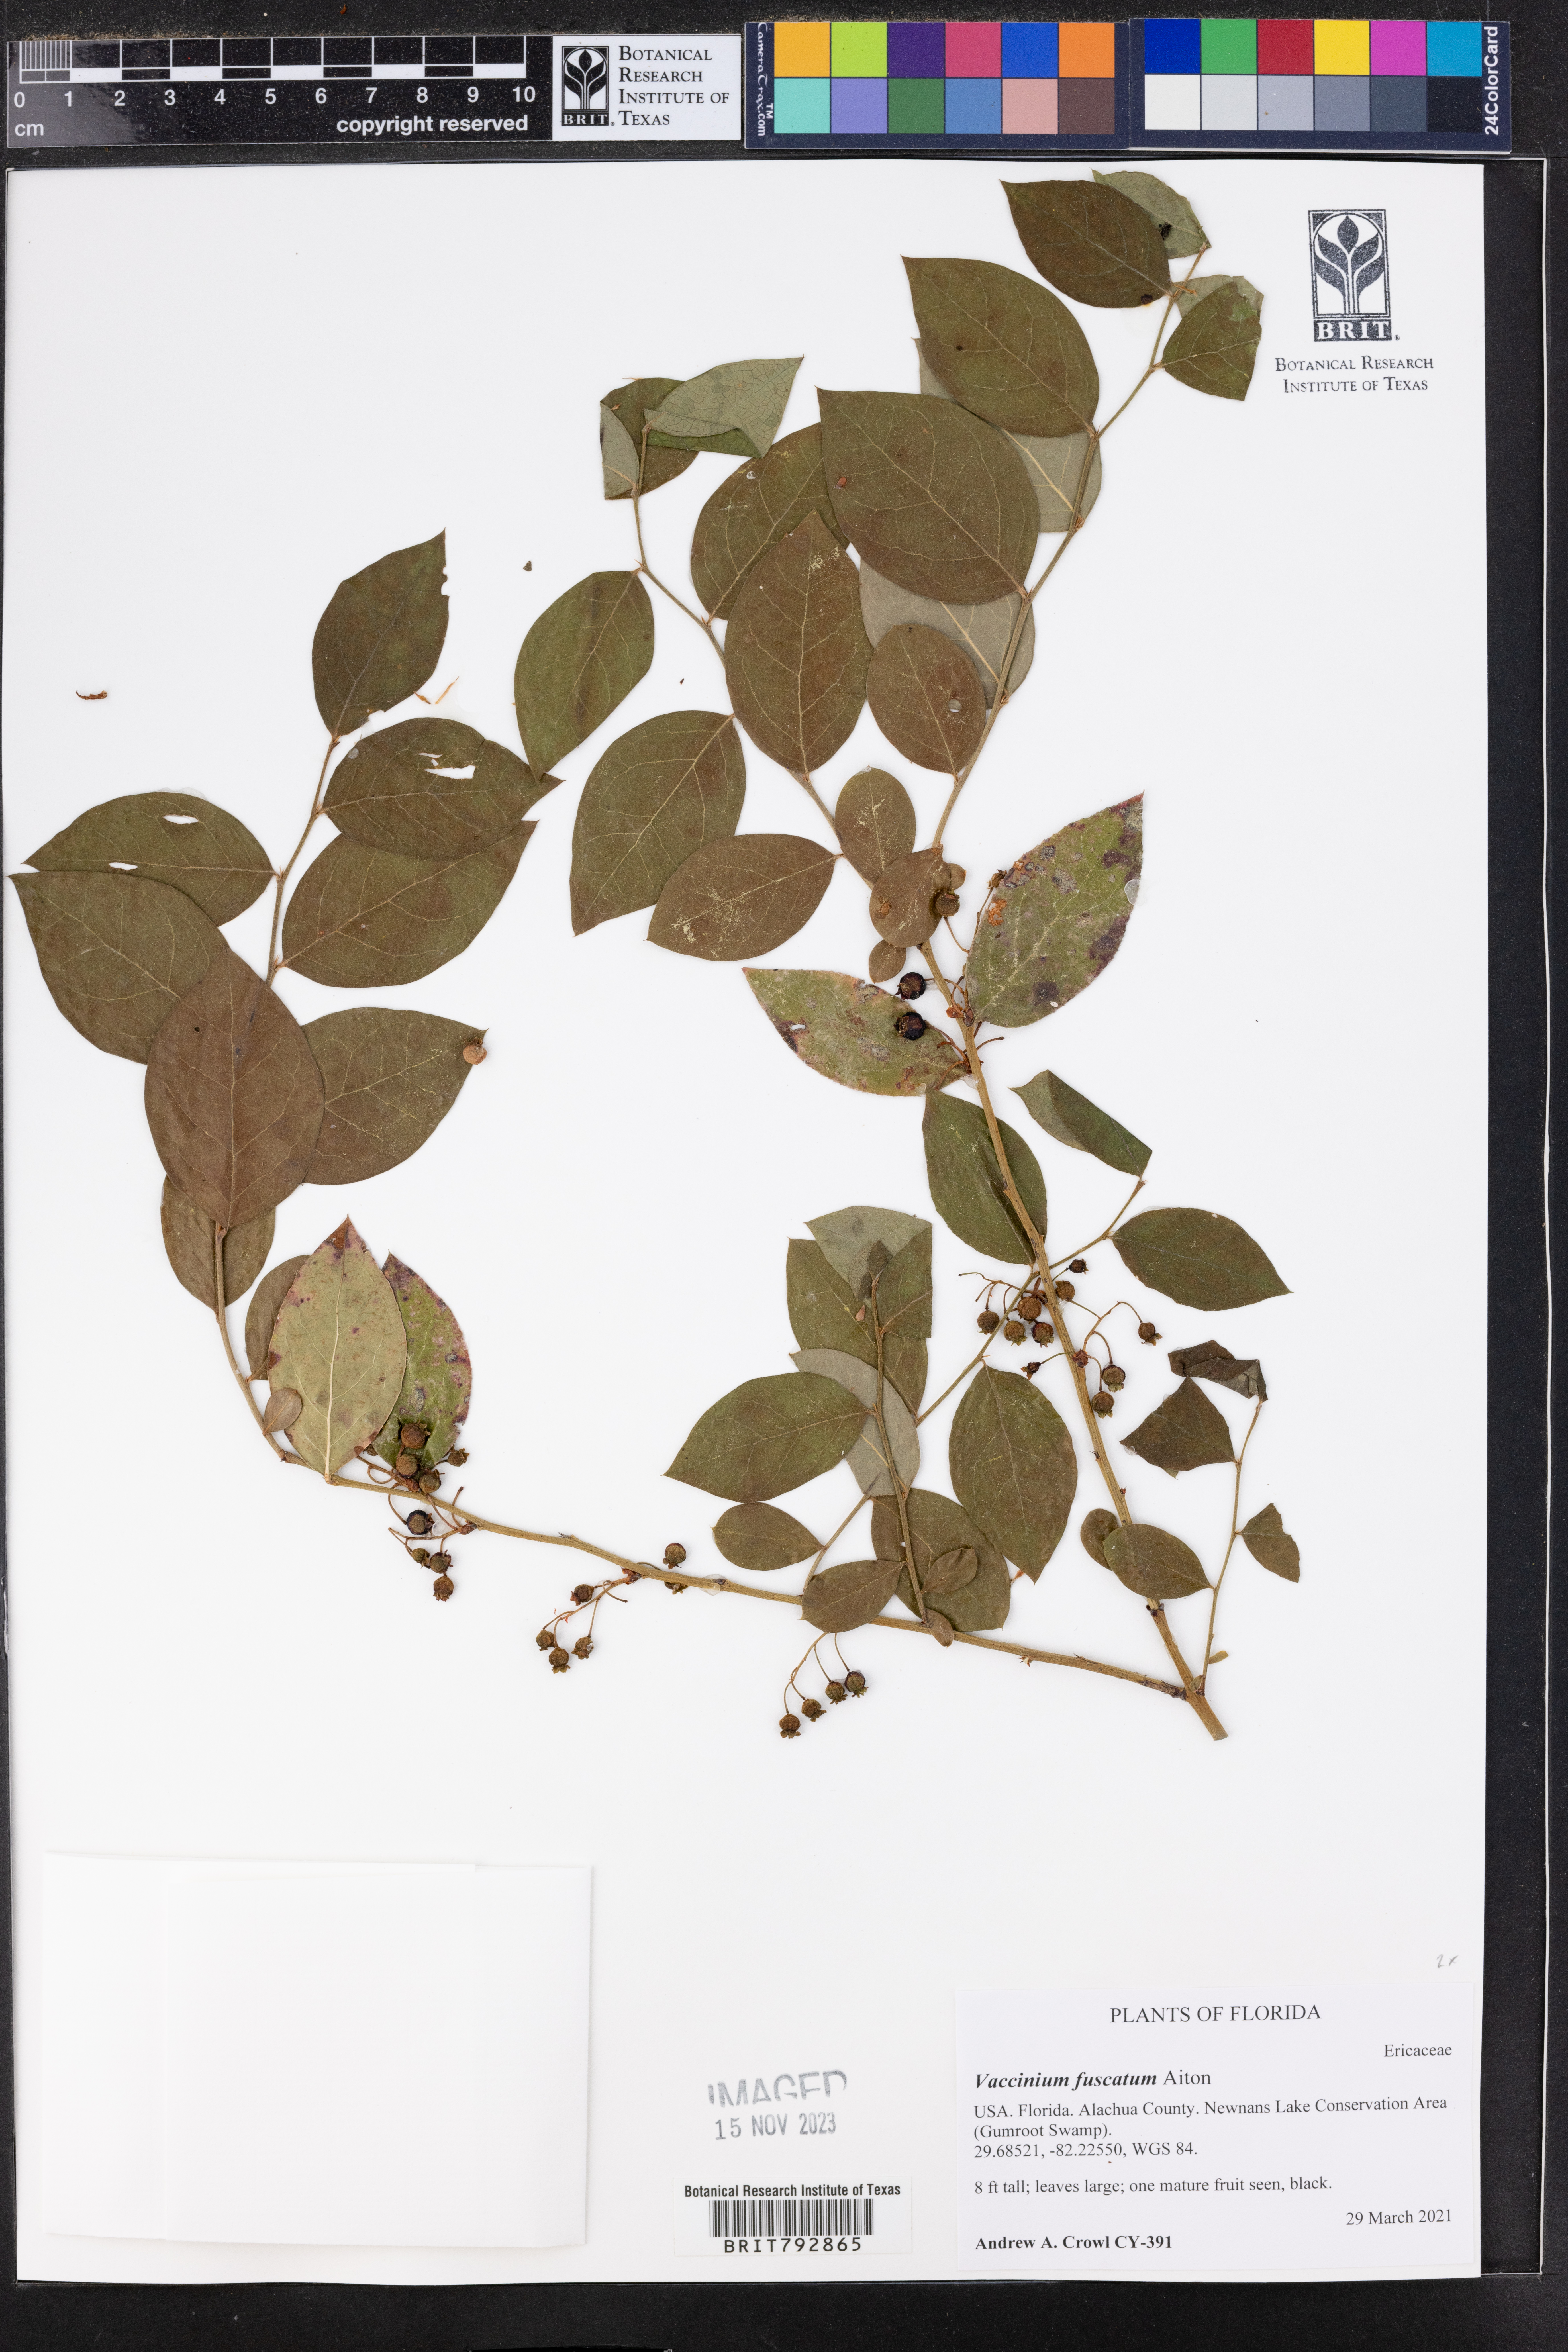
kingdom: Plantae
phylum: Tracheophyta
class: Magnoliopsida
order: Ericales
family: Ericaceae
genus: Vaccinium
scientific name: Vaccinium corymbosum
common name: Blueberry
